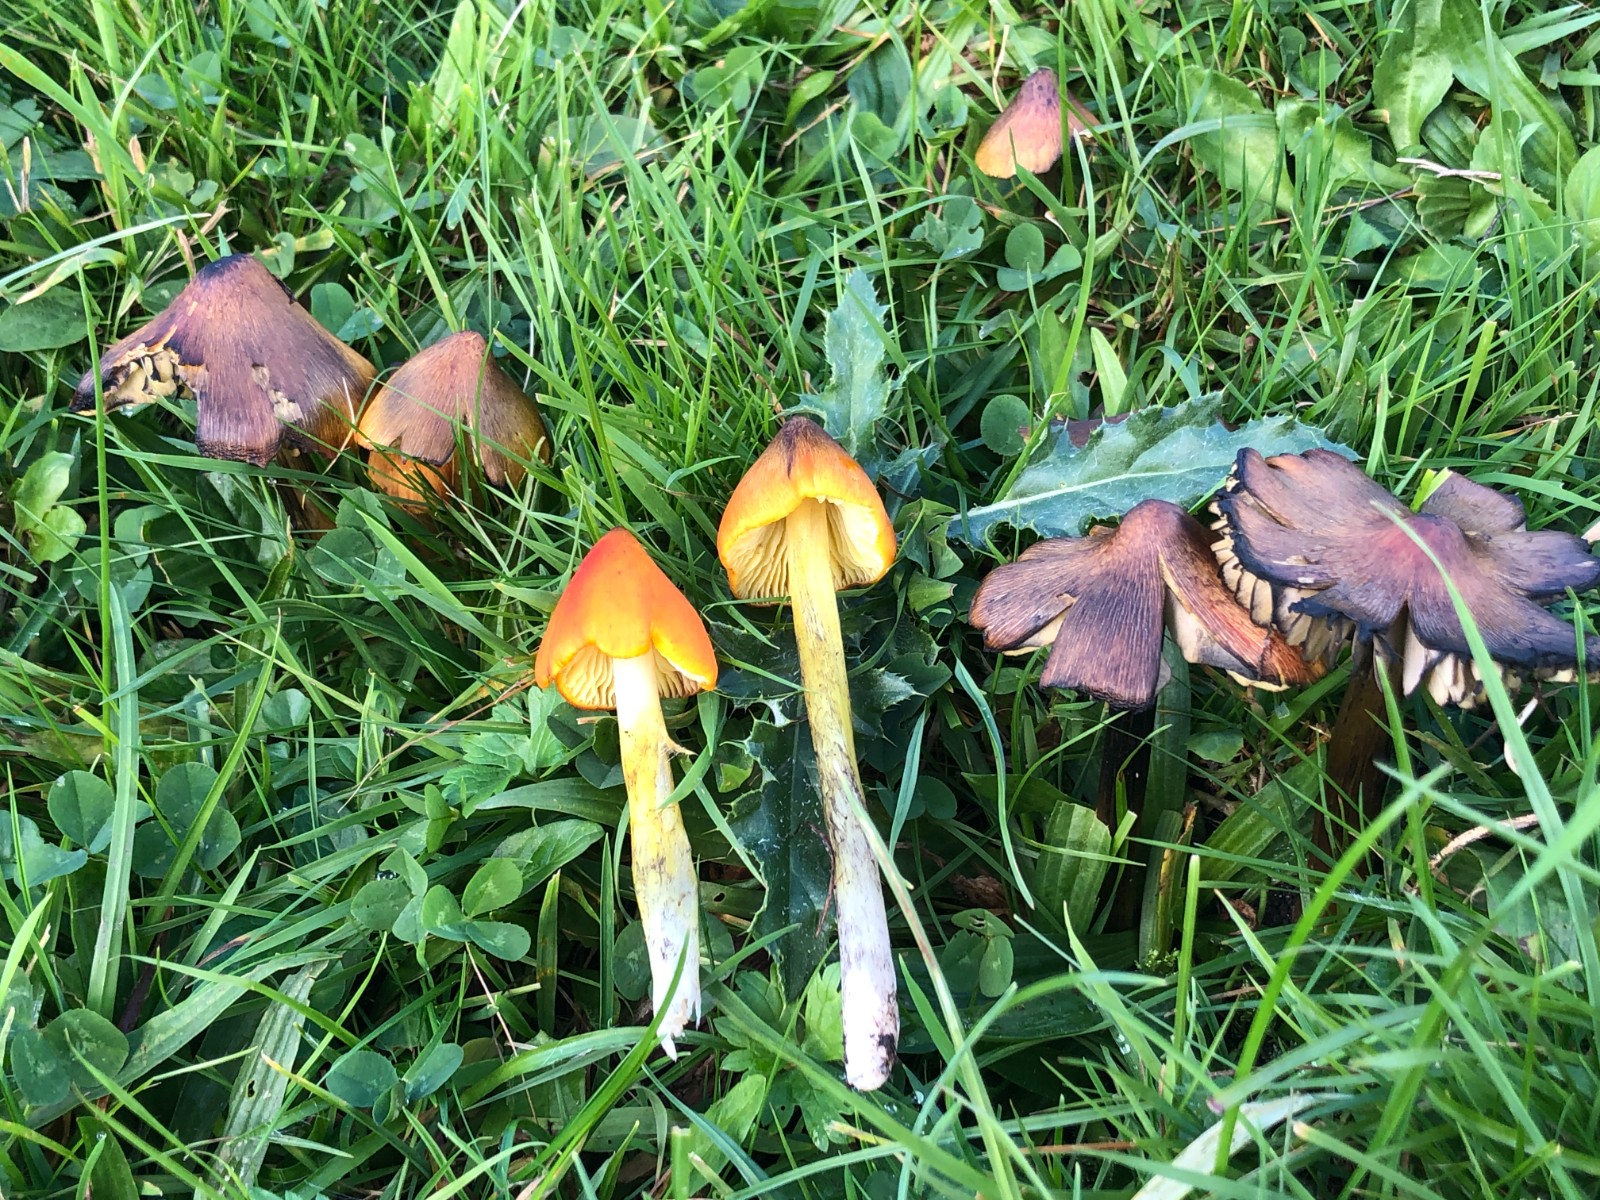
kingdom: Fungi
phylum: Basidiomycota
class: Agaricomycetes
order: Agaricales
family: Hygrophoraceae
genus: Hygrocybe
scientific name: Hygrocybe conica
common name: kegle-vokshat
